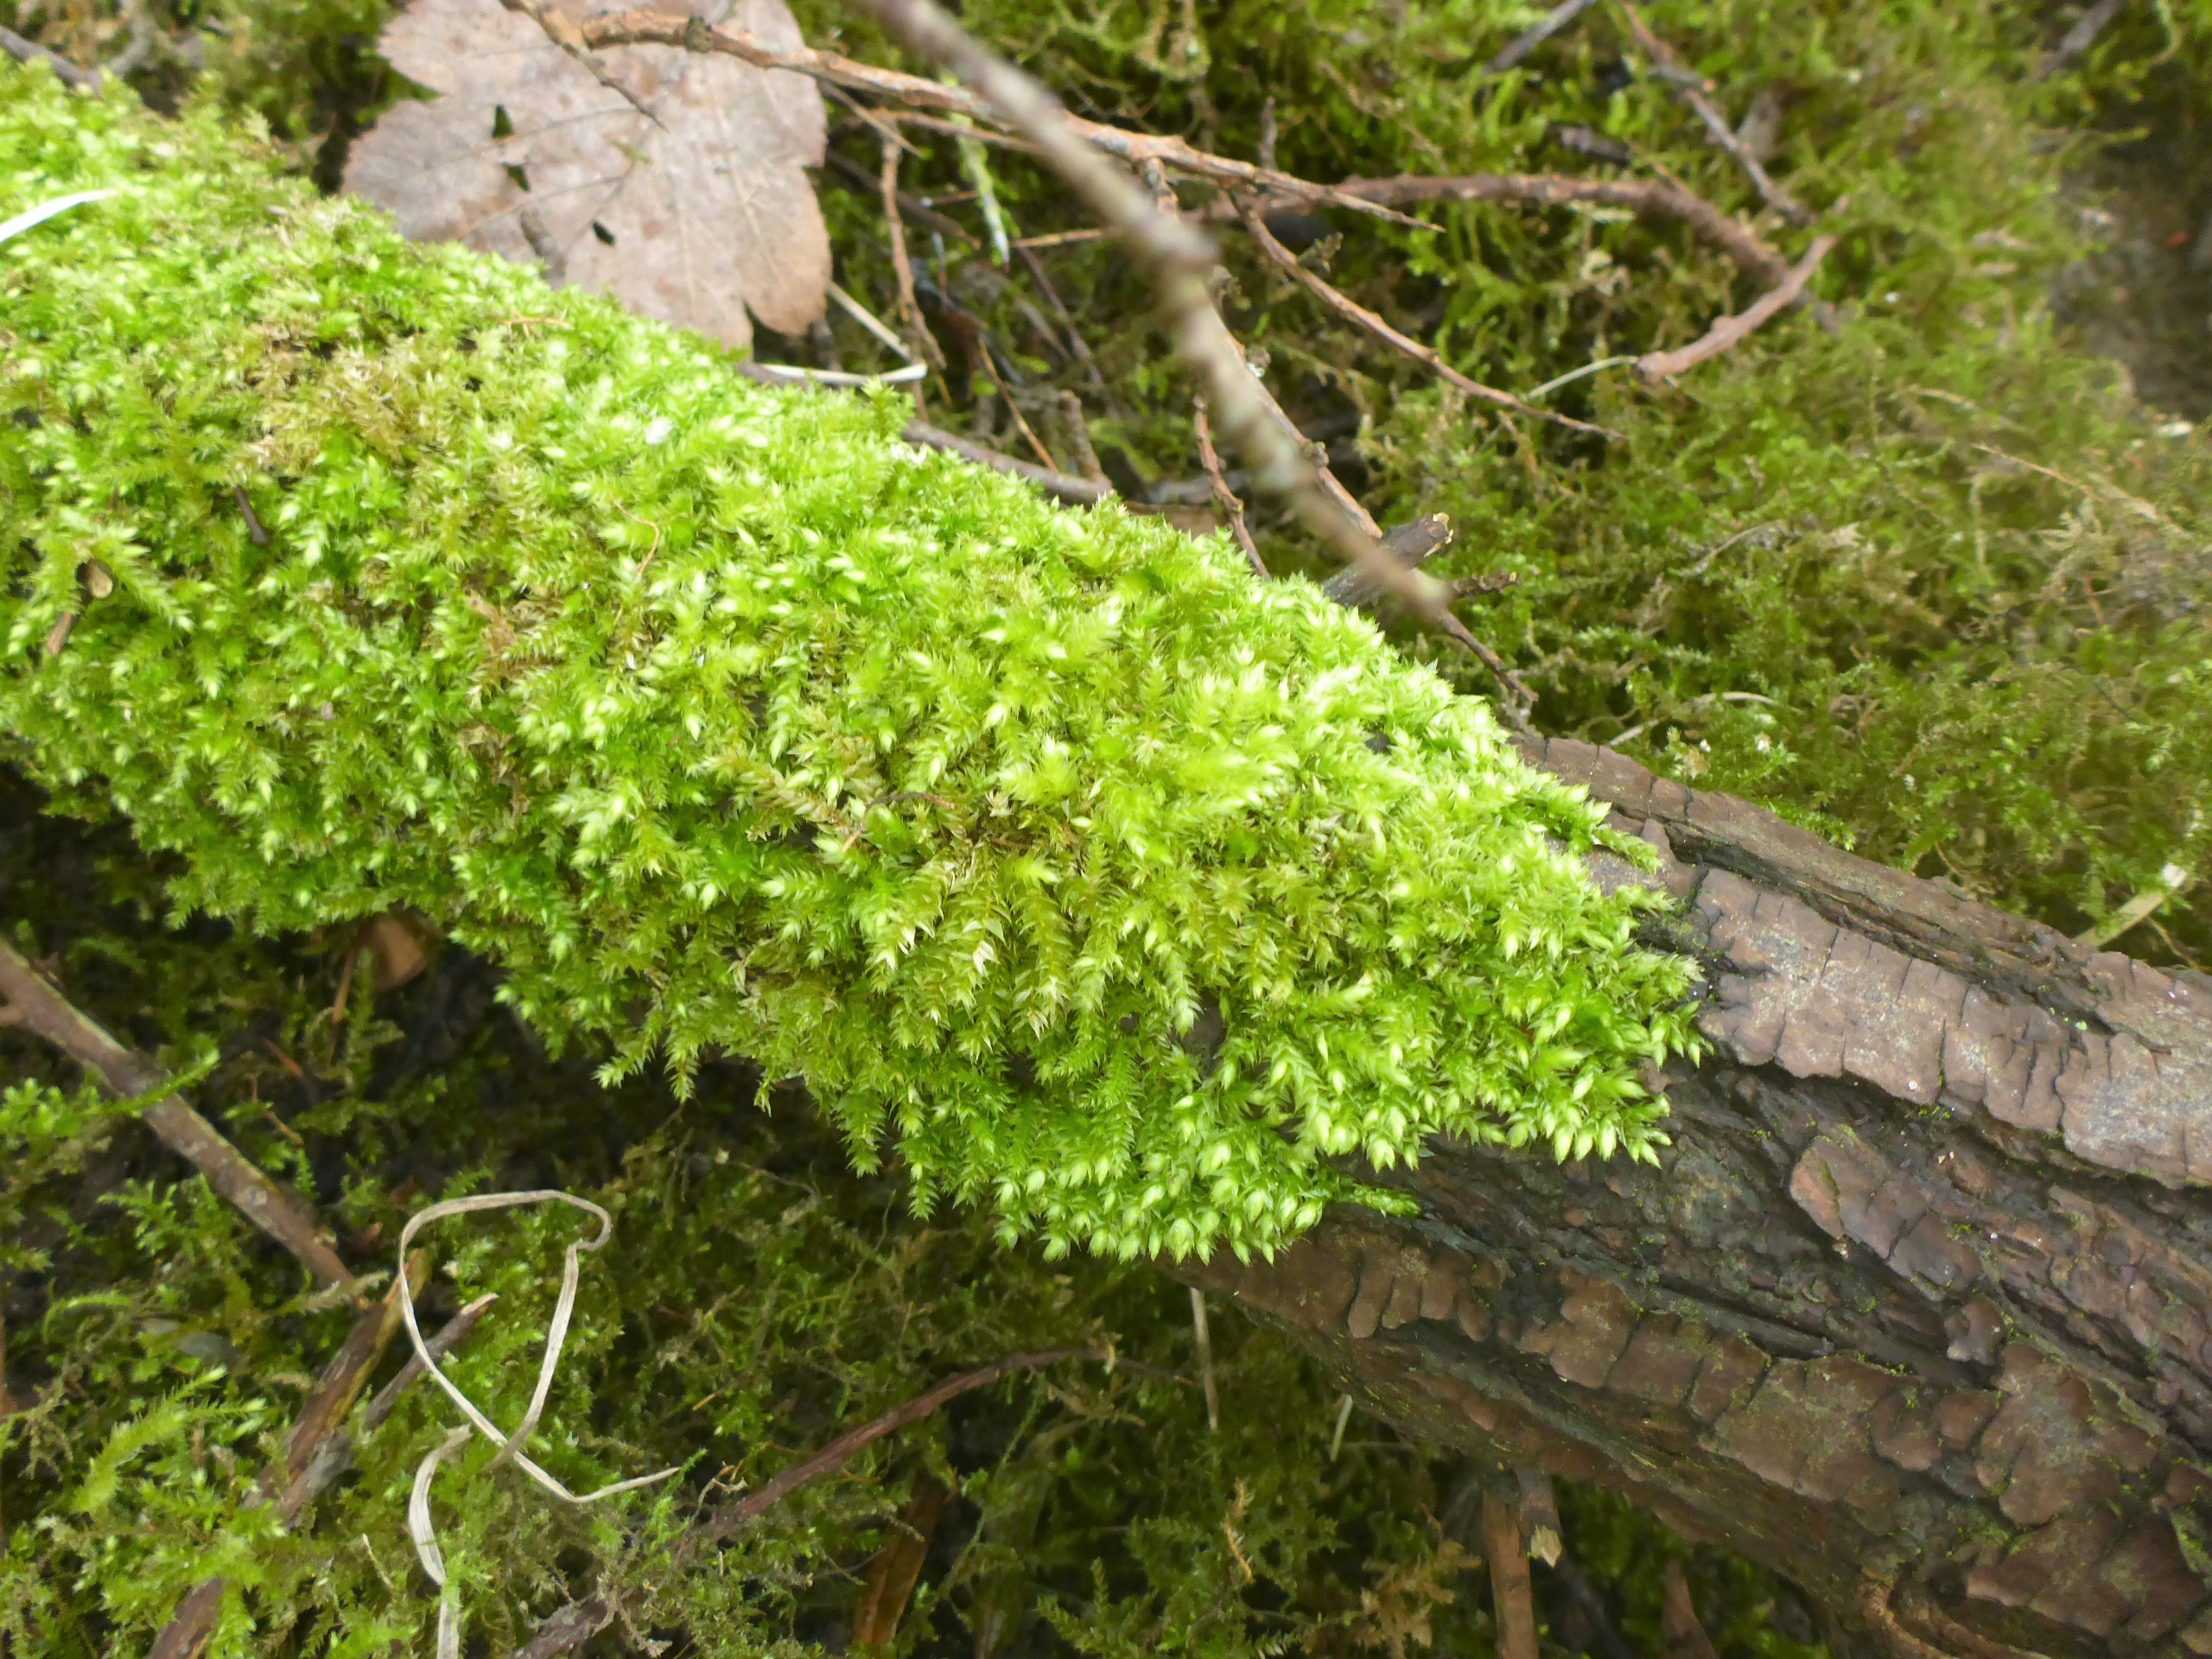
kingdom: Plantae
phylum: Bryophyta
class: Bryopsida
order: Hypnales
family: Brachytheciaceae
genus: Brachythecium
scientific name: Brachythecium rutabulum
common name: Almindelig kortkapsel
